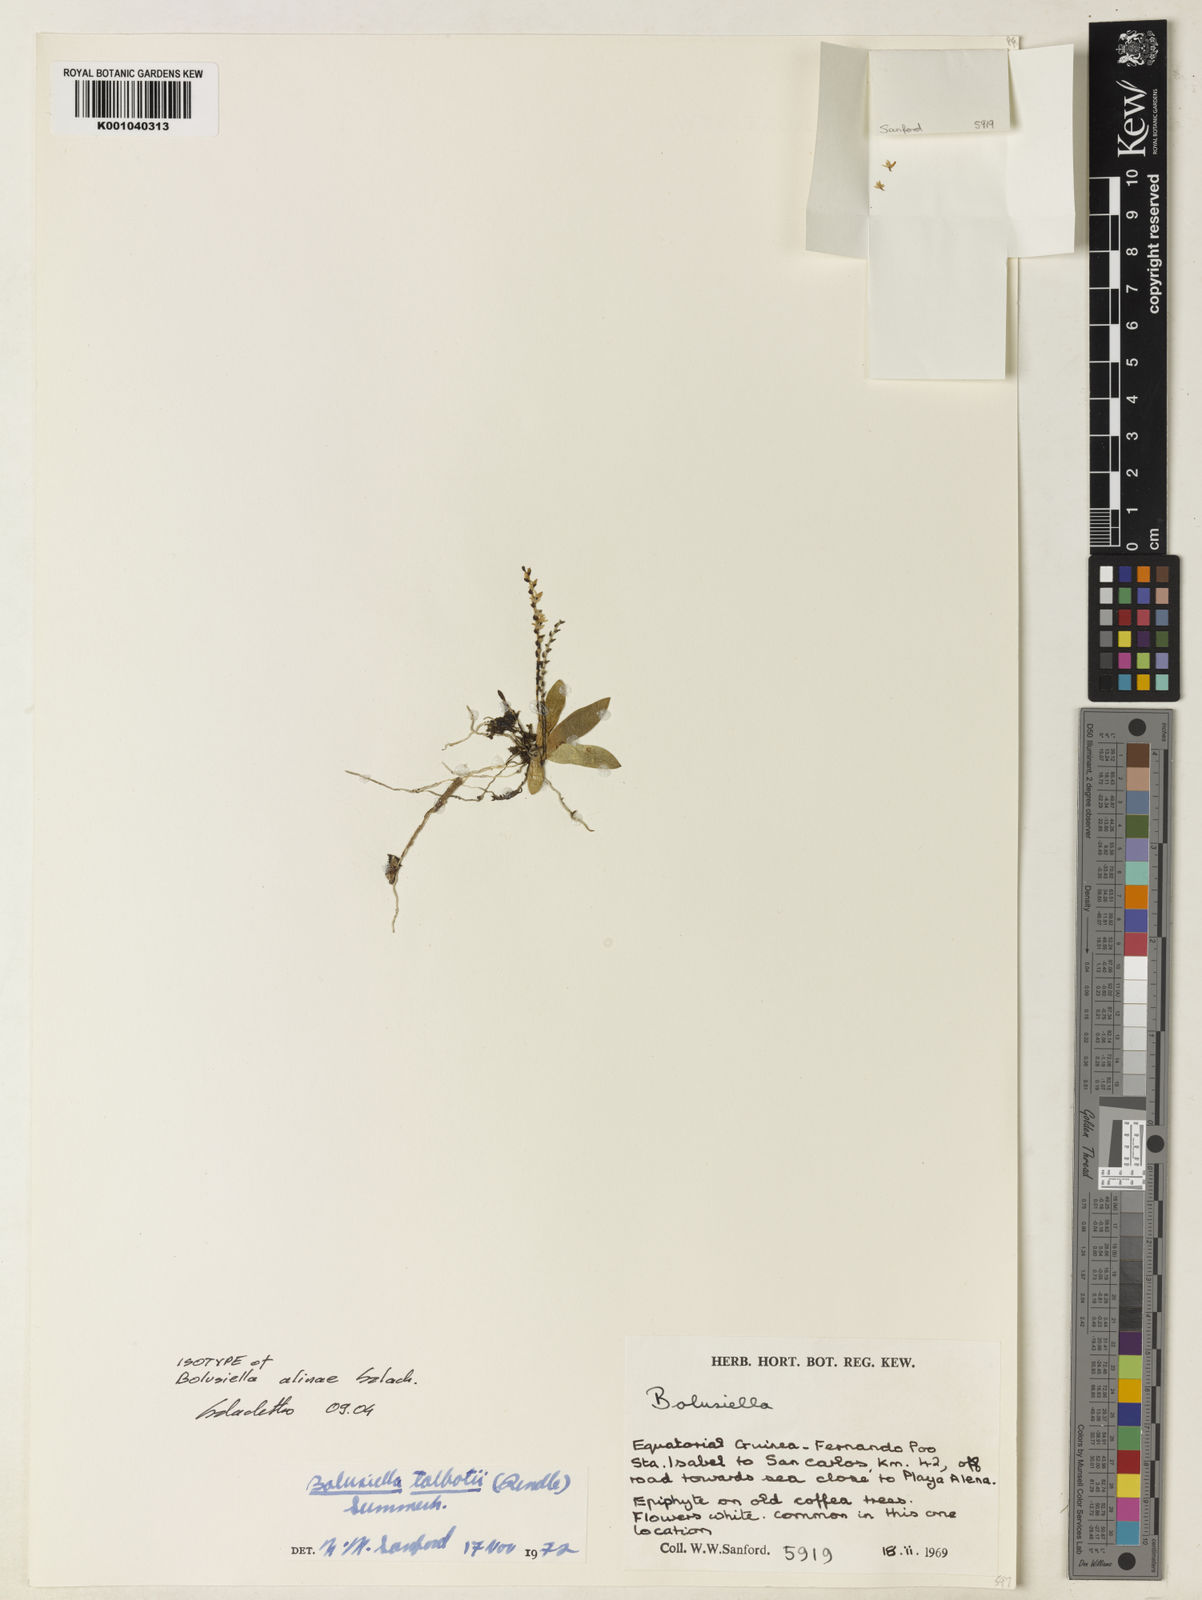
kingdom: Plantae
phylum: Tracheophyta
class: Liliopsida
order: Asparagales
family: Orchidaceae
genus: Bolusiella
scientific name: Bolusiella talbotii
